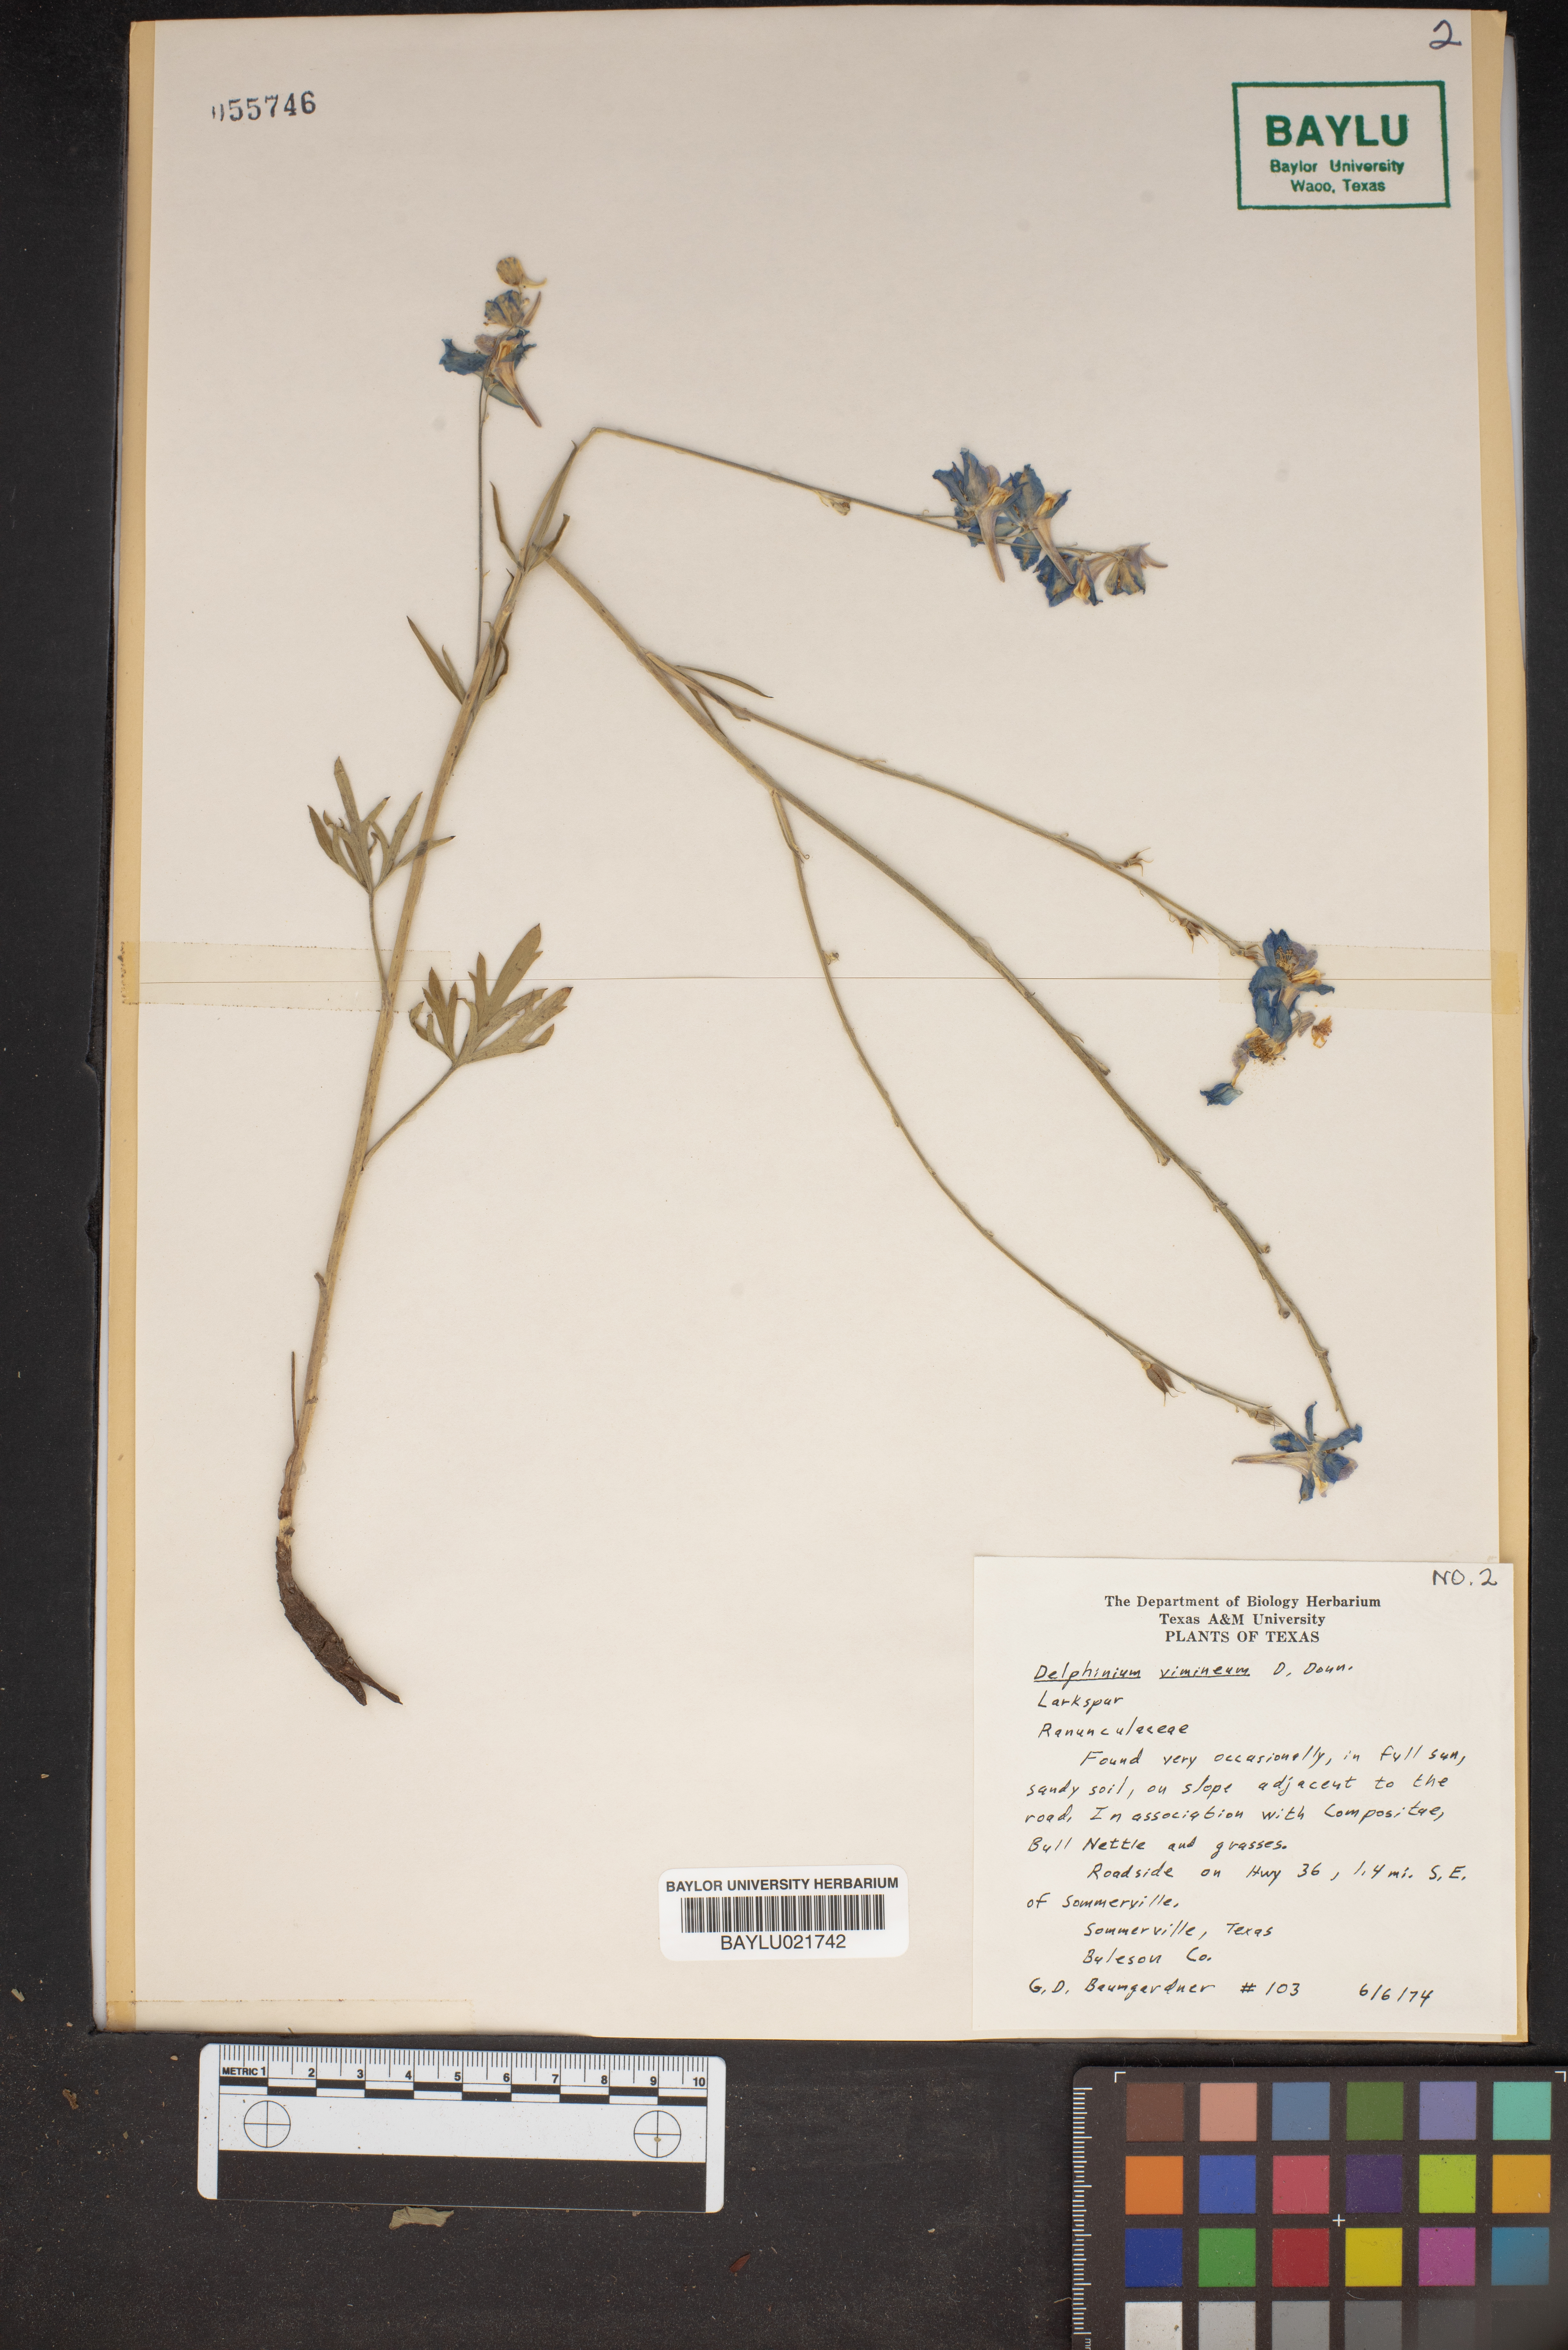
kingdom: Plantae
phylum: Tracheophyta
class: Magnoliopsida
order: Ranunculales
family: Ranunculaceae
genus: Delphinium
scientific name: Delphinium carolinianum
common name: Carolina larkspur
